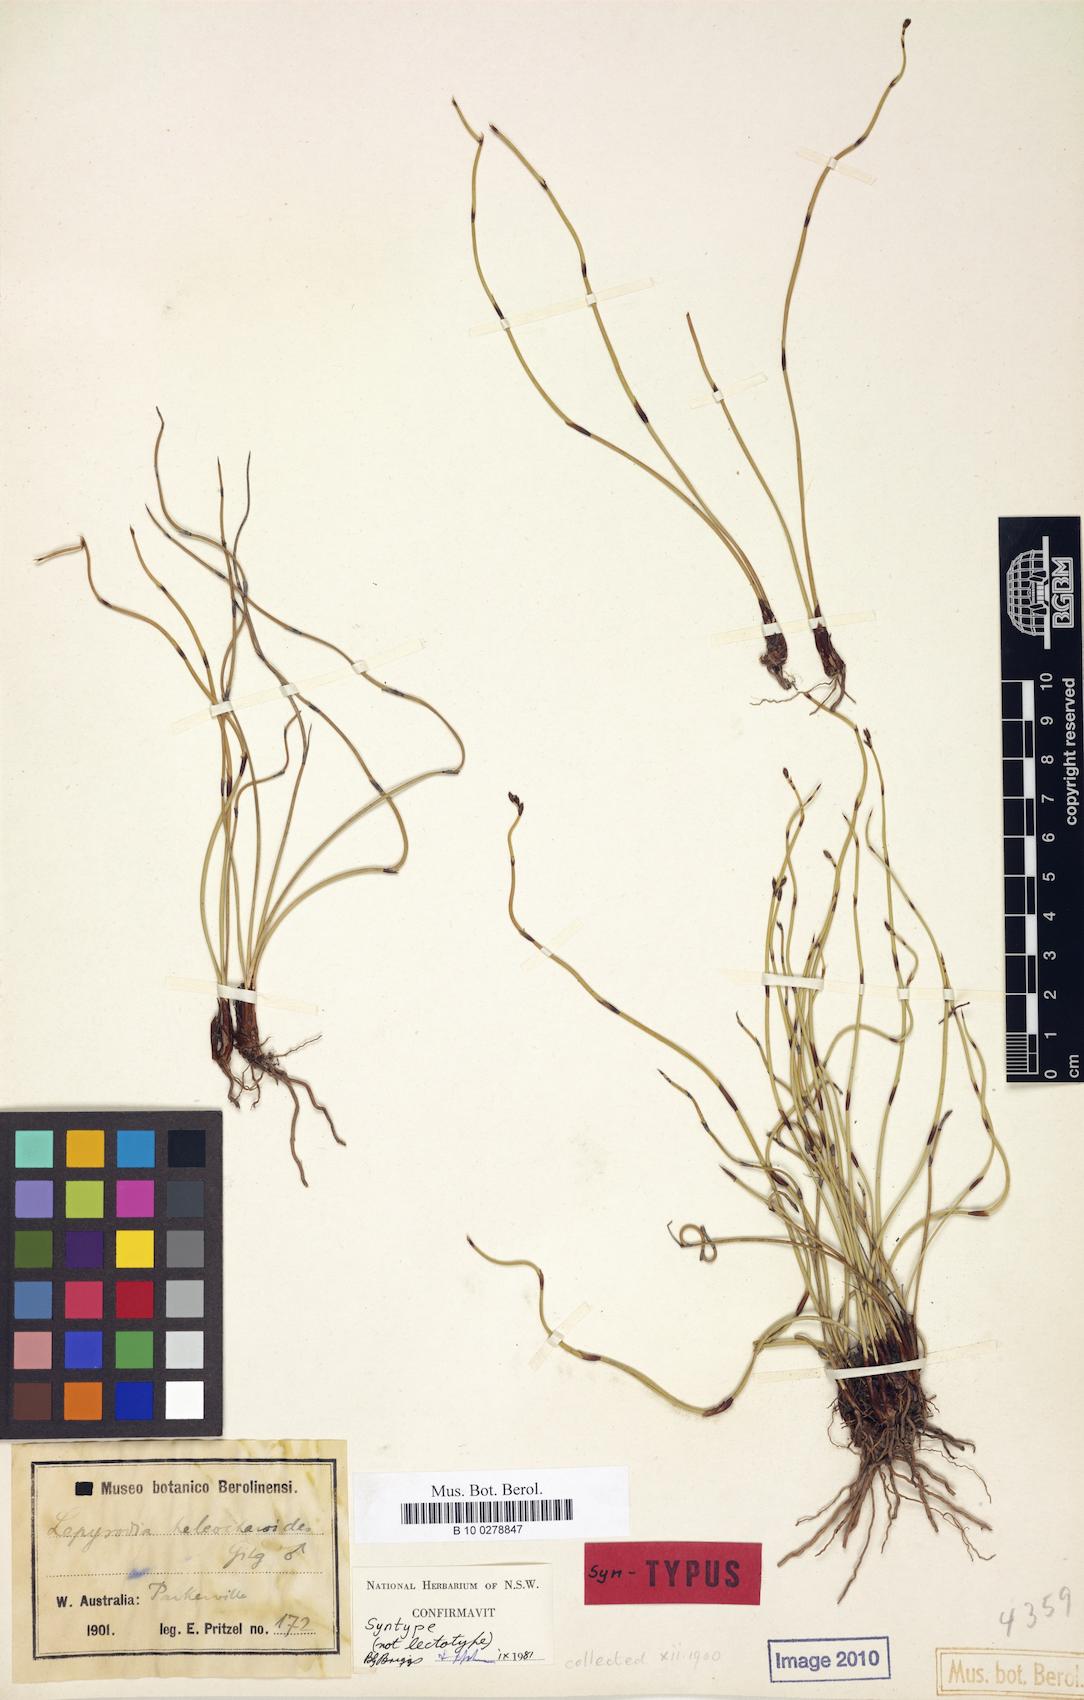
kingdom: Plantae
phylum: Tracheophyta
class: Liliopsida
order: Poales
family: Restionaceae
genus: Lepyrodia
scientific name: Lepyrodia heleocharoides
